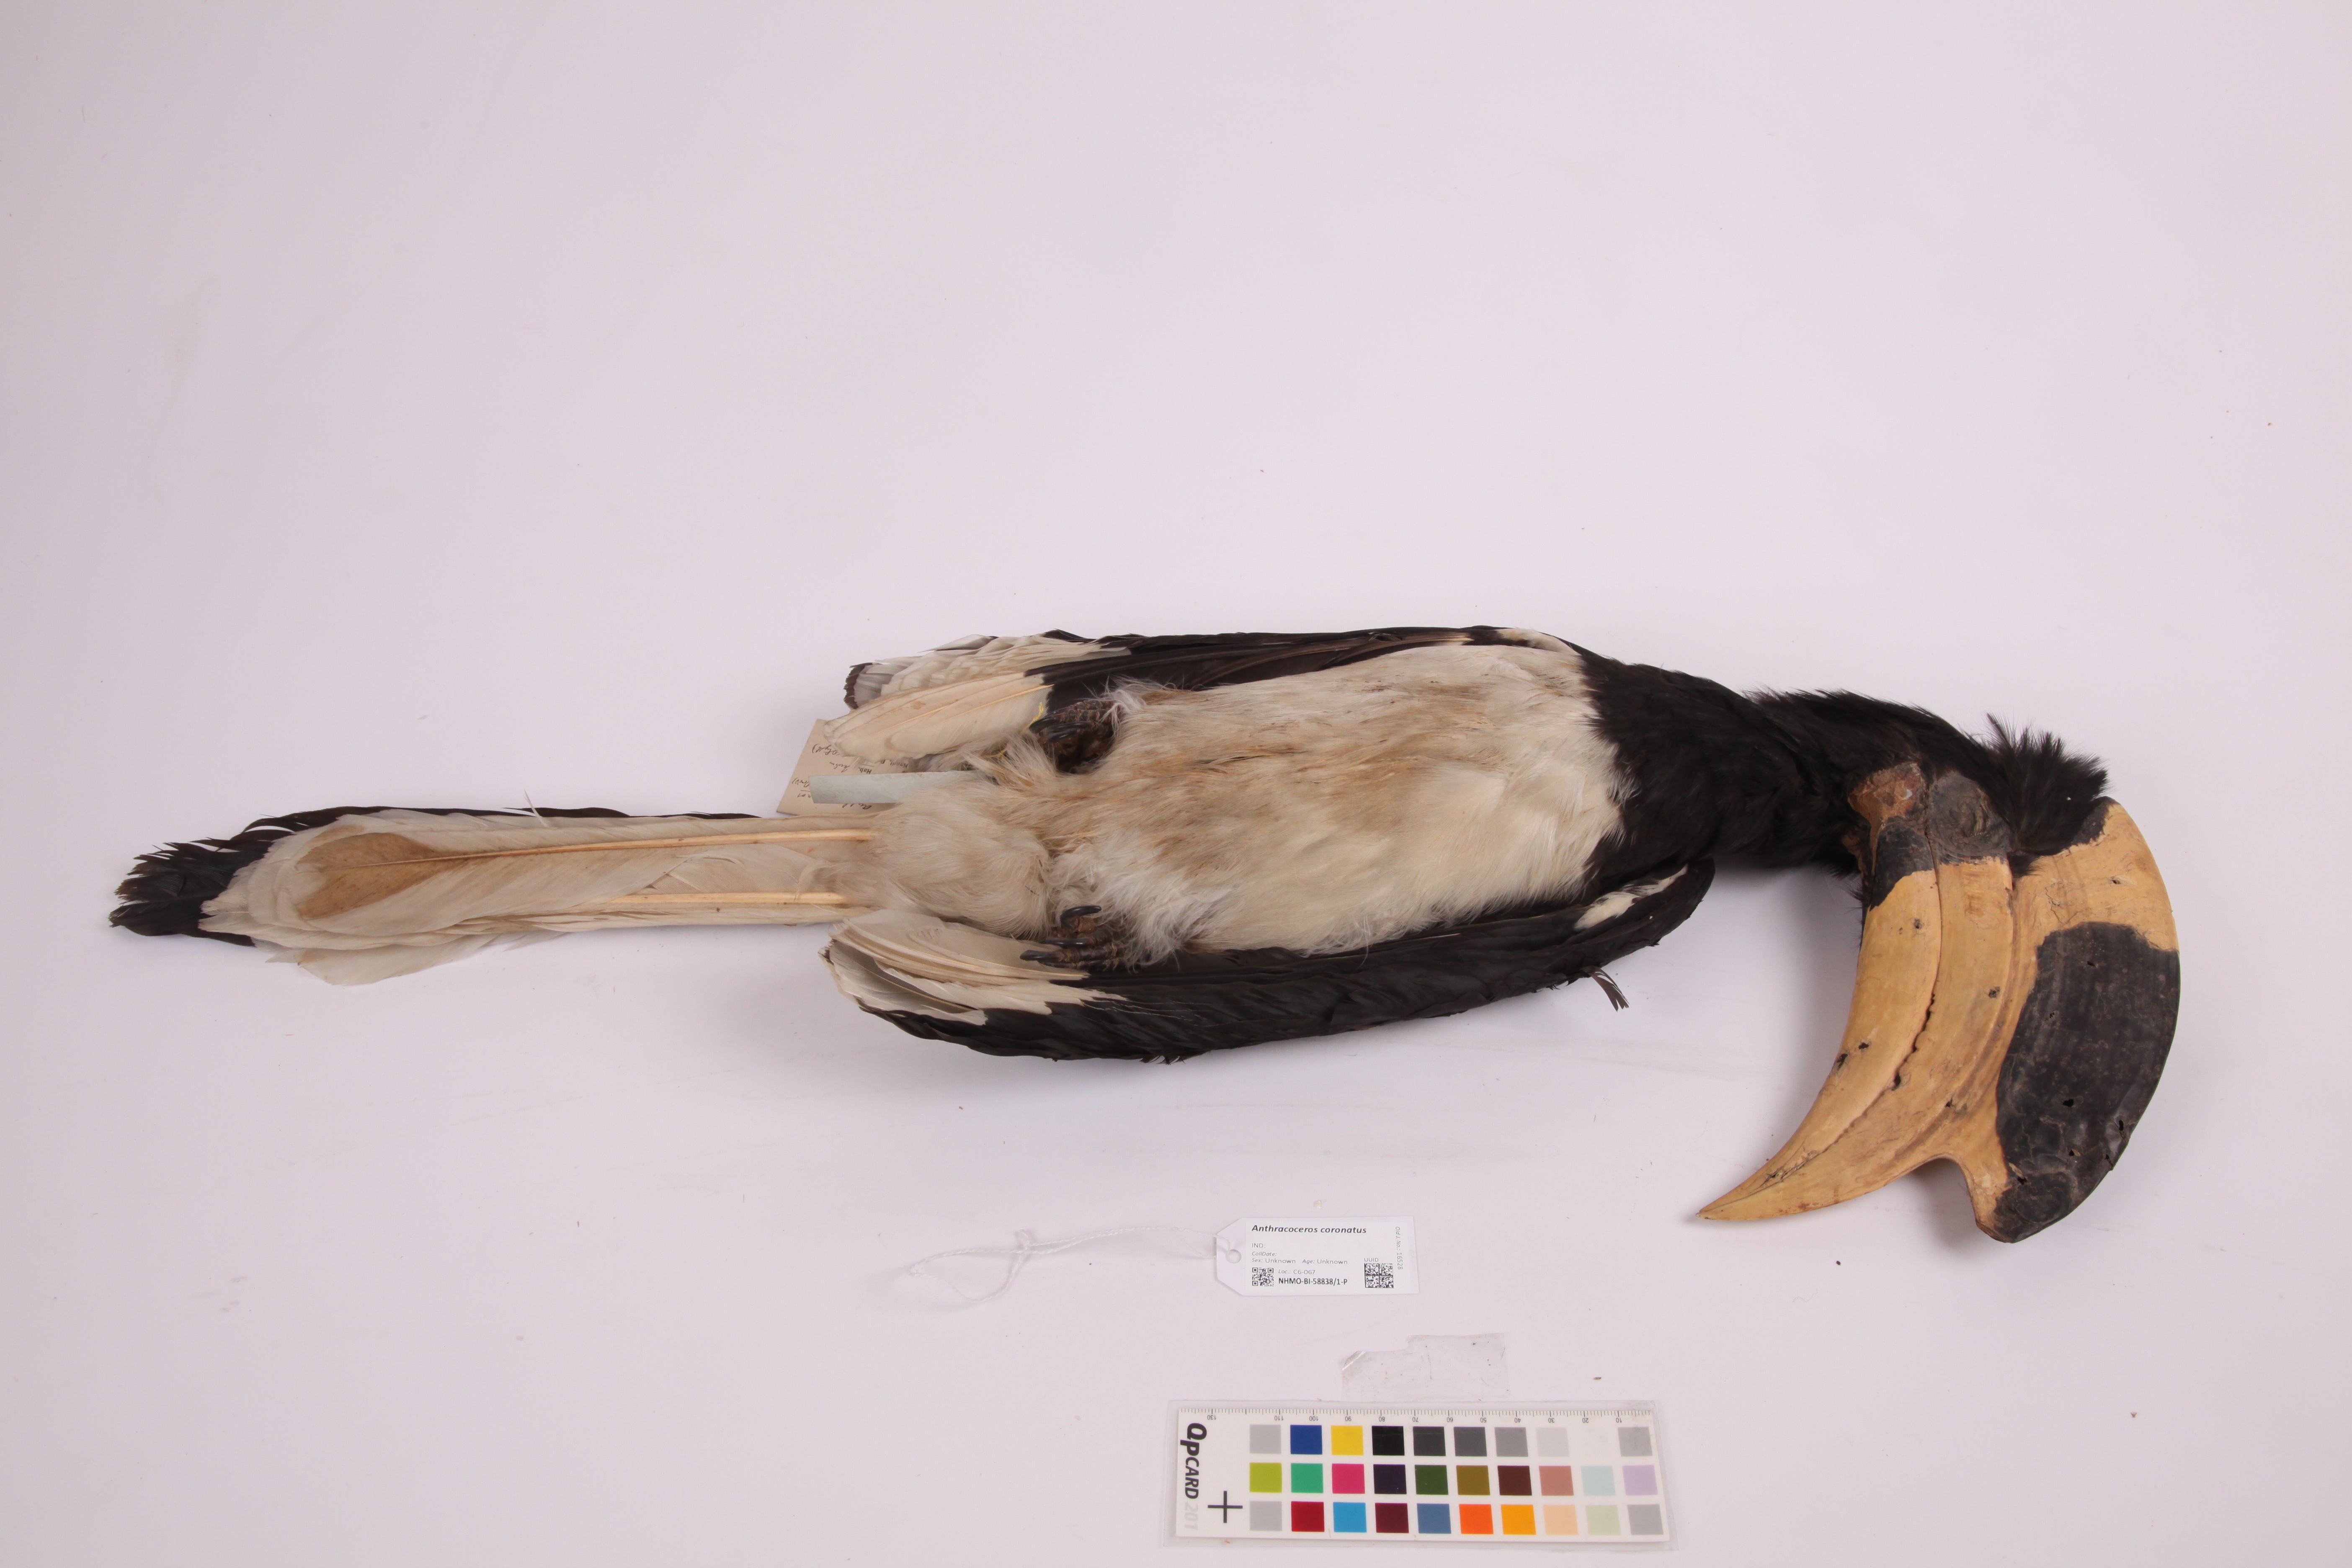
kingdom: Animalia
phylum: Chordata
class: Aves
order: Bucerotiformes
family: Bucerotidae
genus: Anthracoceros
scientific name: Anthracoceros coronatus
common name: Malabar pied hornbill
